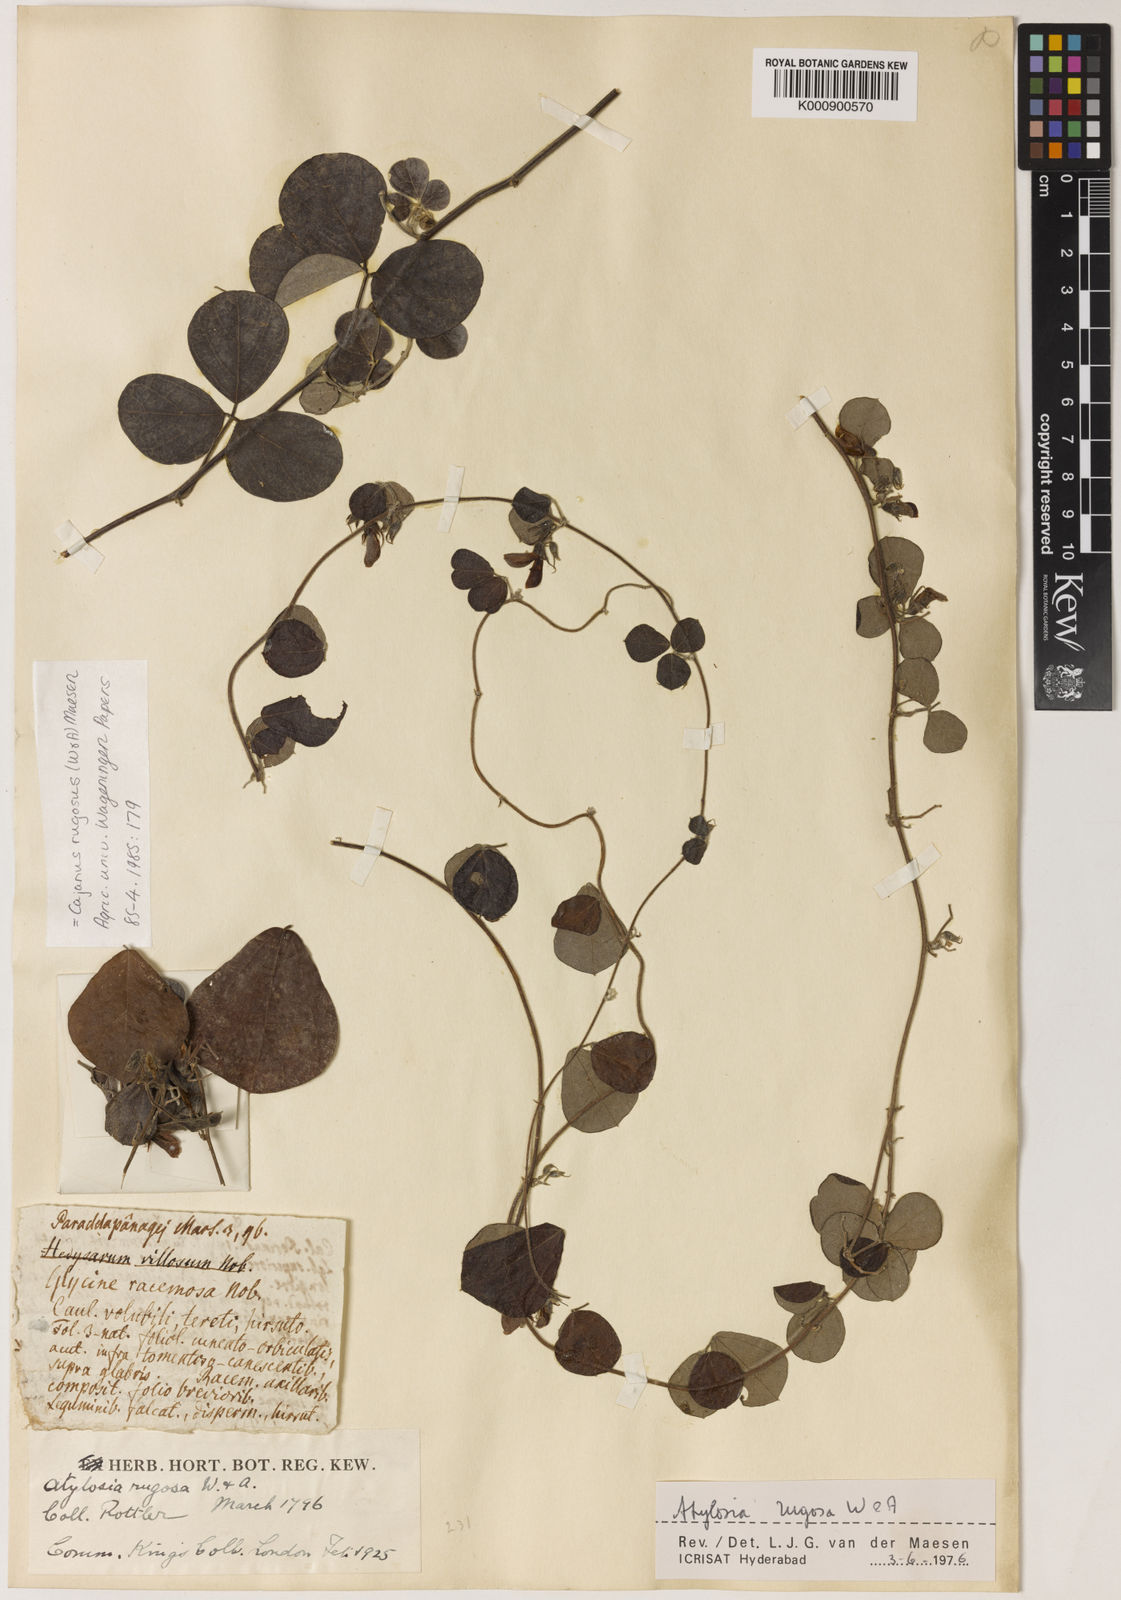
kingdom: Plantae
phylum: Tracheophyta
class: Magnoliopsida
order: Fabales
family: Fabaceae
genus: Cajanus
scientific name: Cajanus rugosus
